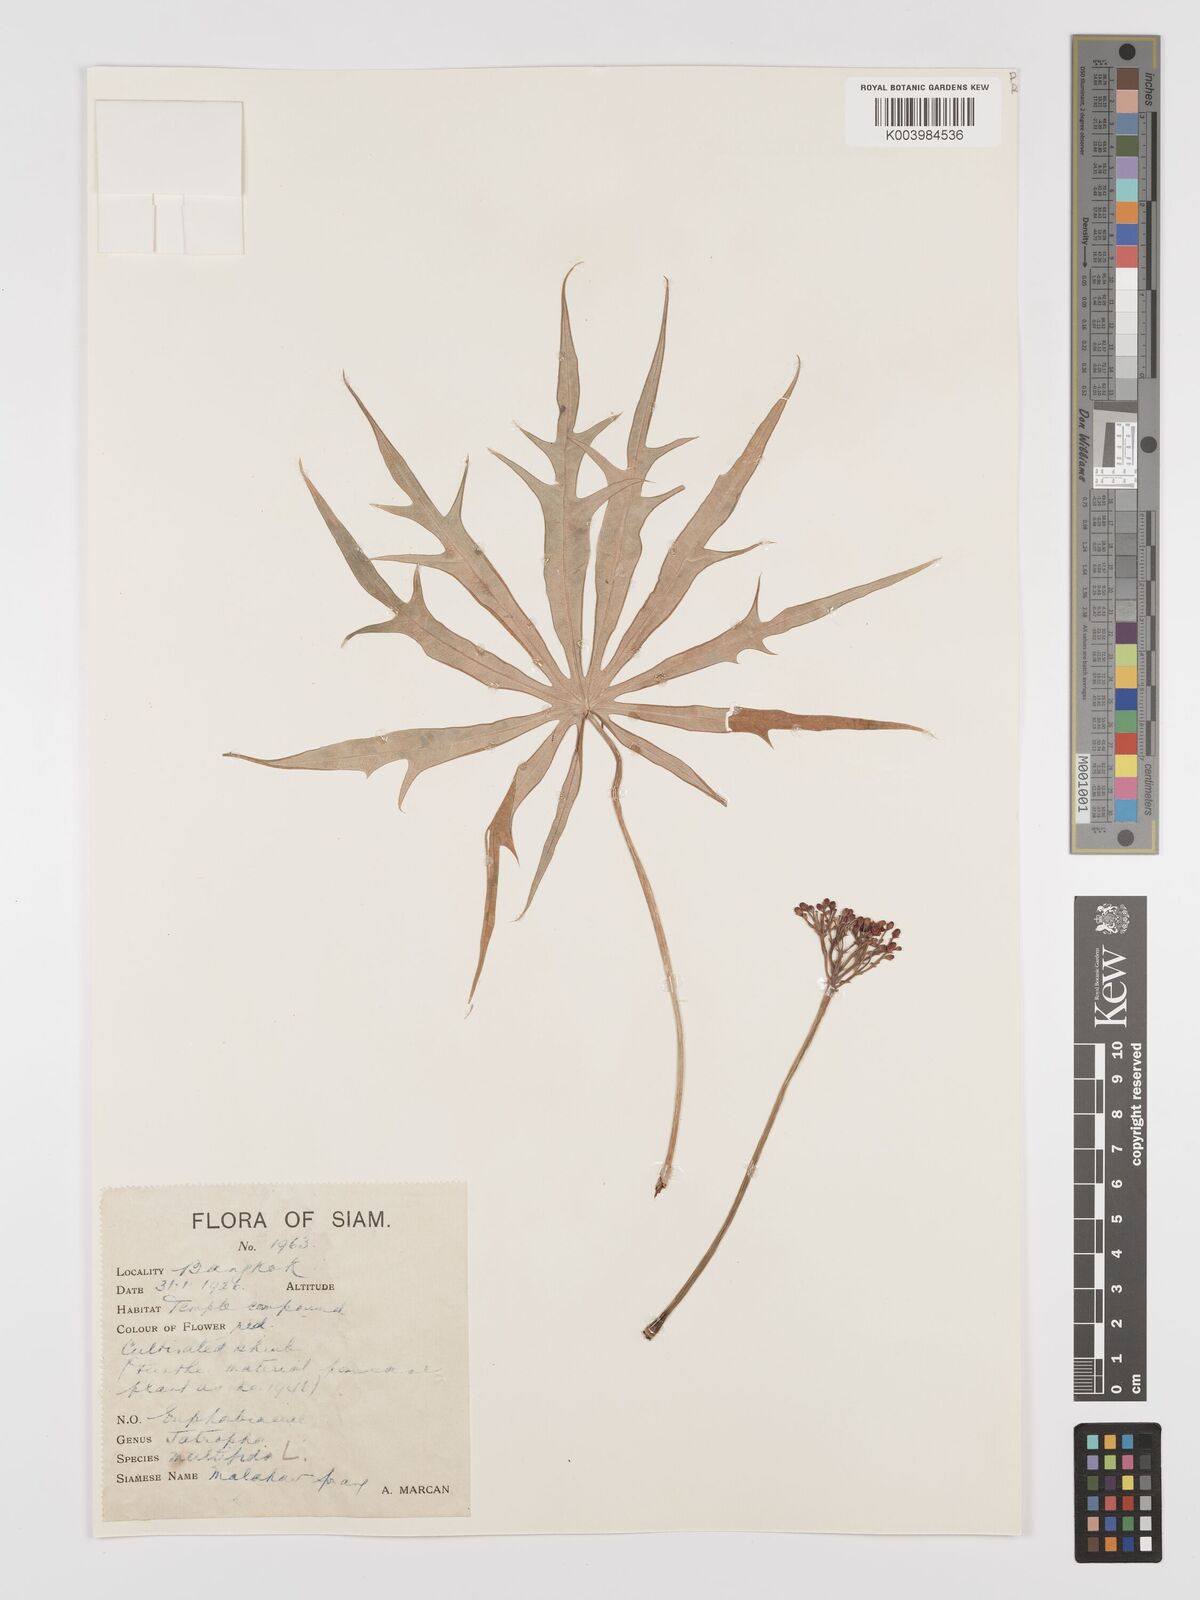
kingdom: Plantae
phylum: Tracheophyta
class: Magnoliopsida
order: Malpighiales
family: Euphorbiaceae
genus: Jatropha
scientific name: Jatropha multifida
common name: Coralbush
